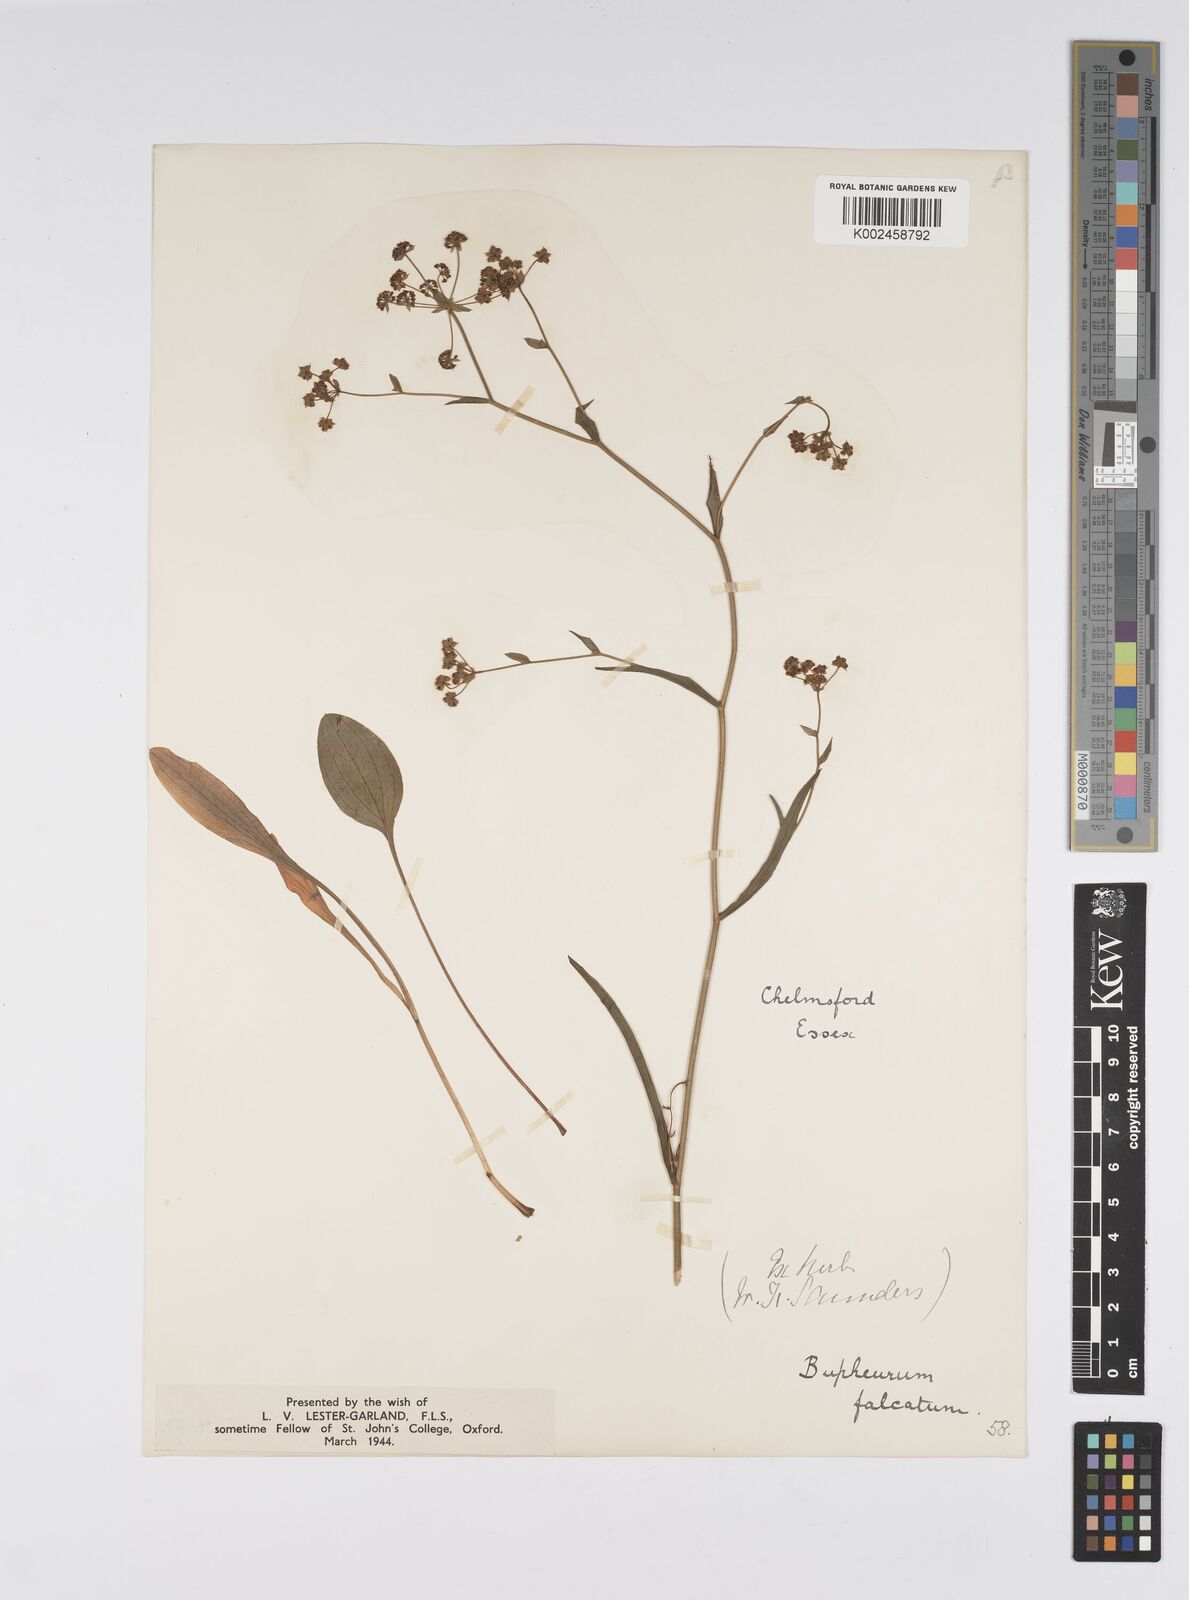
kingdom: Plantae
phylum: Tracheophyta
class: Magnoliopsida
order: Apiales
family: Apiaceae
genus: Bupleurum
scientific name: Bupleurum falcatum
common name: Sickle-leaved hare's-ear
